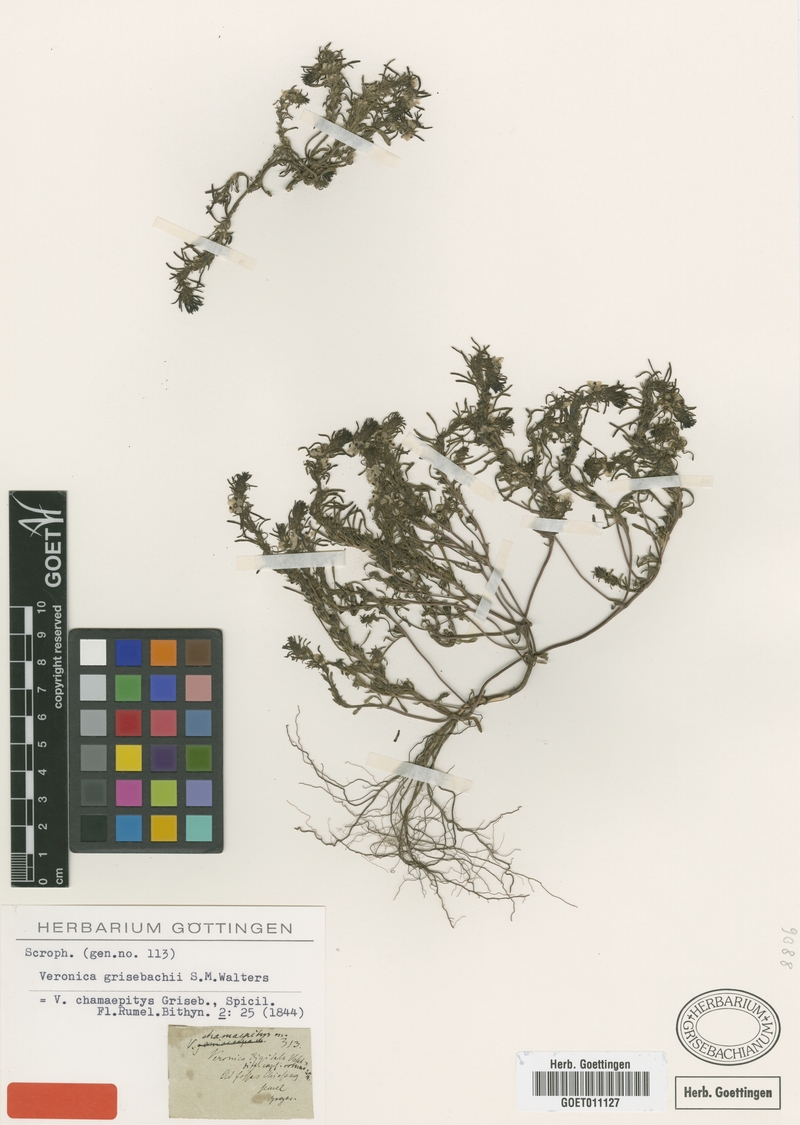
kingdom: Plantae
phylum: Tracheophyta
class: Magnoliopsida
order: Lamiales
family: Plantaginaceae
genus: Veronica
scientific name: Veronica grisebachii
